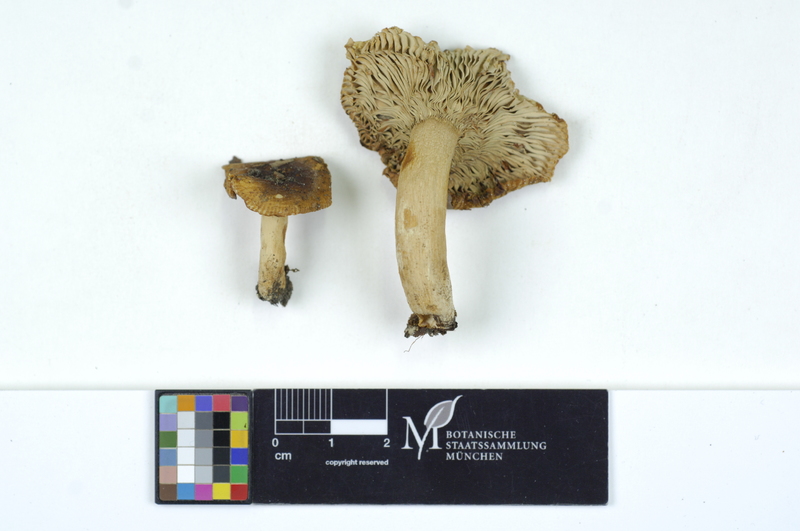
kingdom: Fungi
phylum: Basidiomycota
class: Agaricomycetes
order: Russulales
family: Russulaceae
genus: Russula
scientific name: Russula livescens
